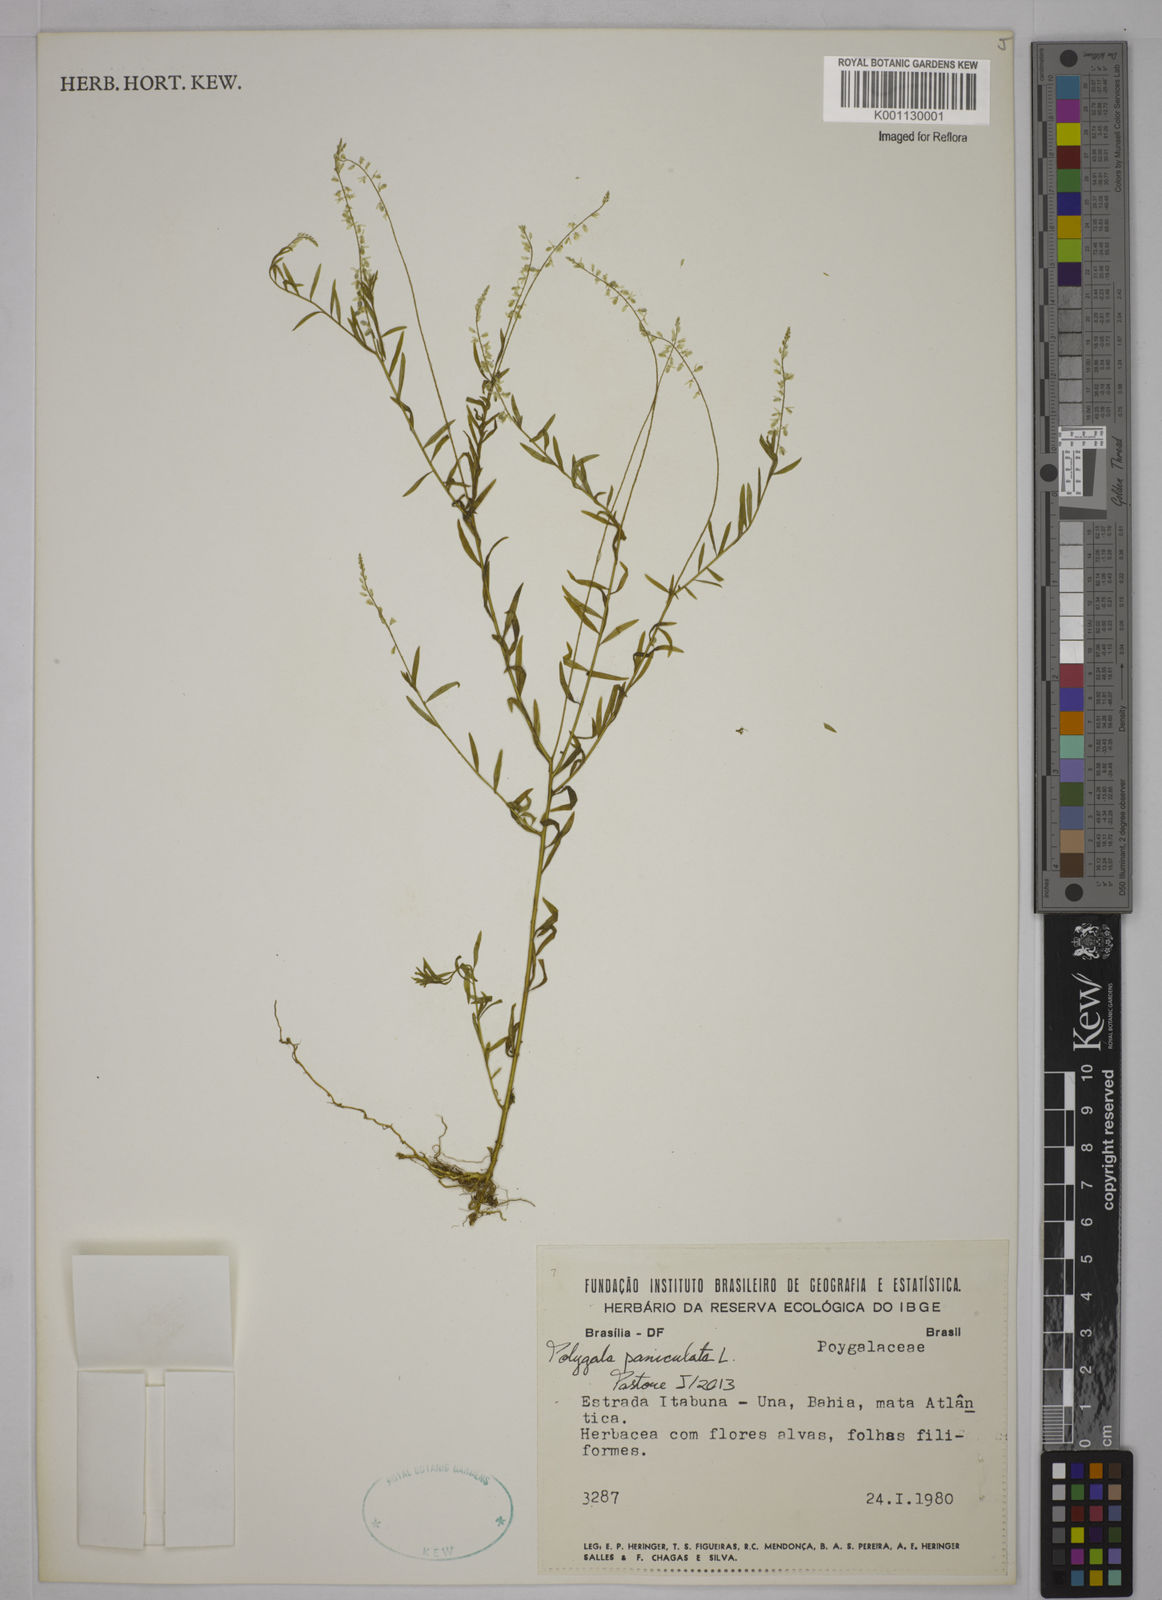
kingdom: Plantae
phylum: Tracheophyta
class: Magnoliopsida
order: Fabales
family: Polygalaceae
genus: Polygala
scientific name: Polygala paniculata
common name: Orosne
